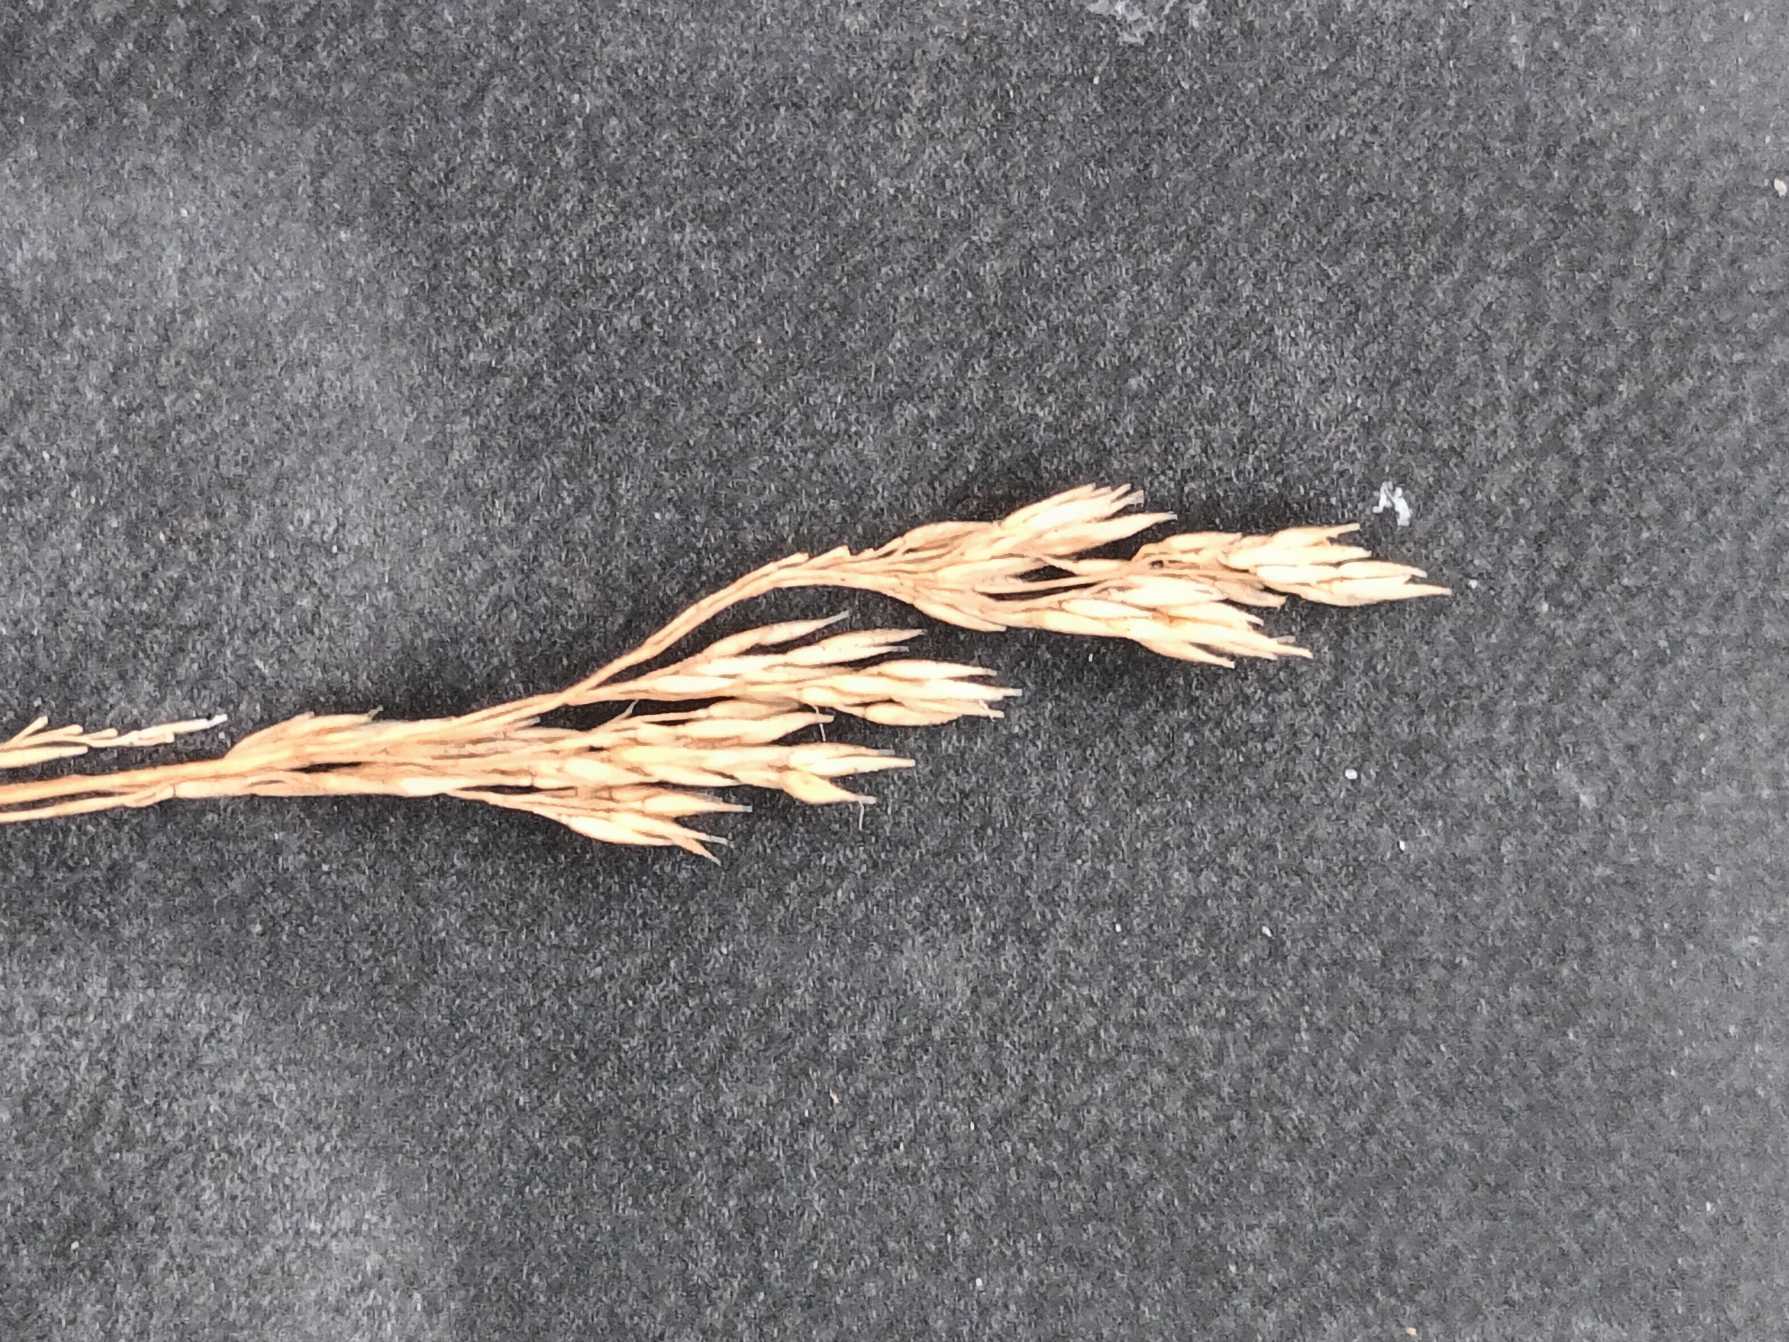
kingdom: Plantae
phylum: Tracheophyta
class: Liliopsida
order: Poales
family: Poaceae
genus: Agrostis
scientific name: Agrostis vinealis
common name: Sand-hvene
